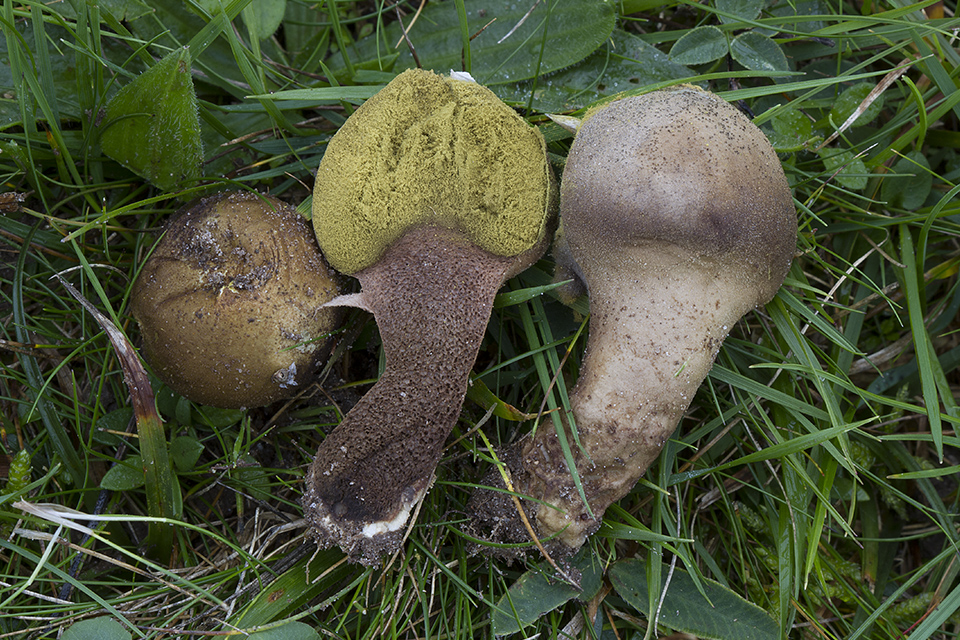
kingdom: Fungi
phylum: Basidiomycota
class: Agaricomycetes
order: Agaricales
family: Lycoperdaceae
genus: Lycoperdon
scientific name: Lycoperdon lividum
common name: mark-støvbold
